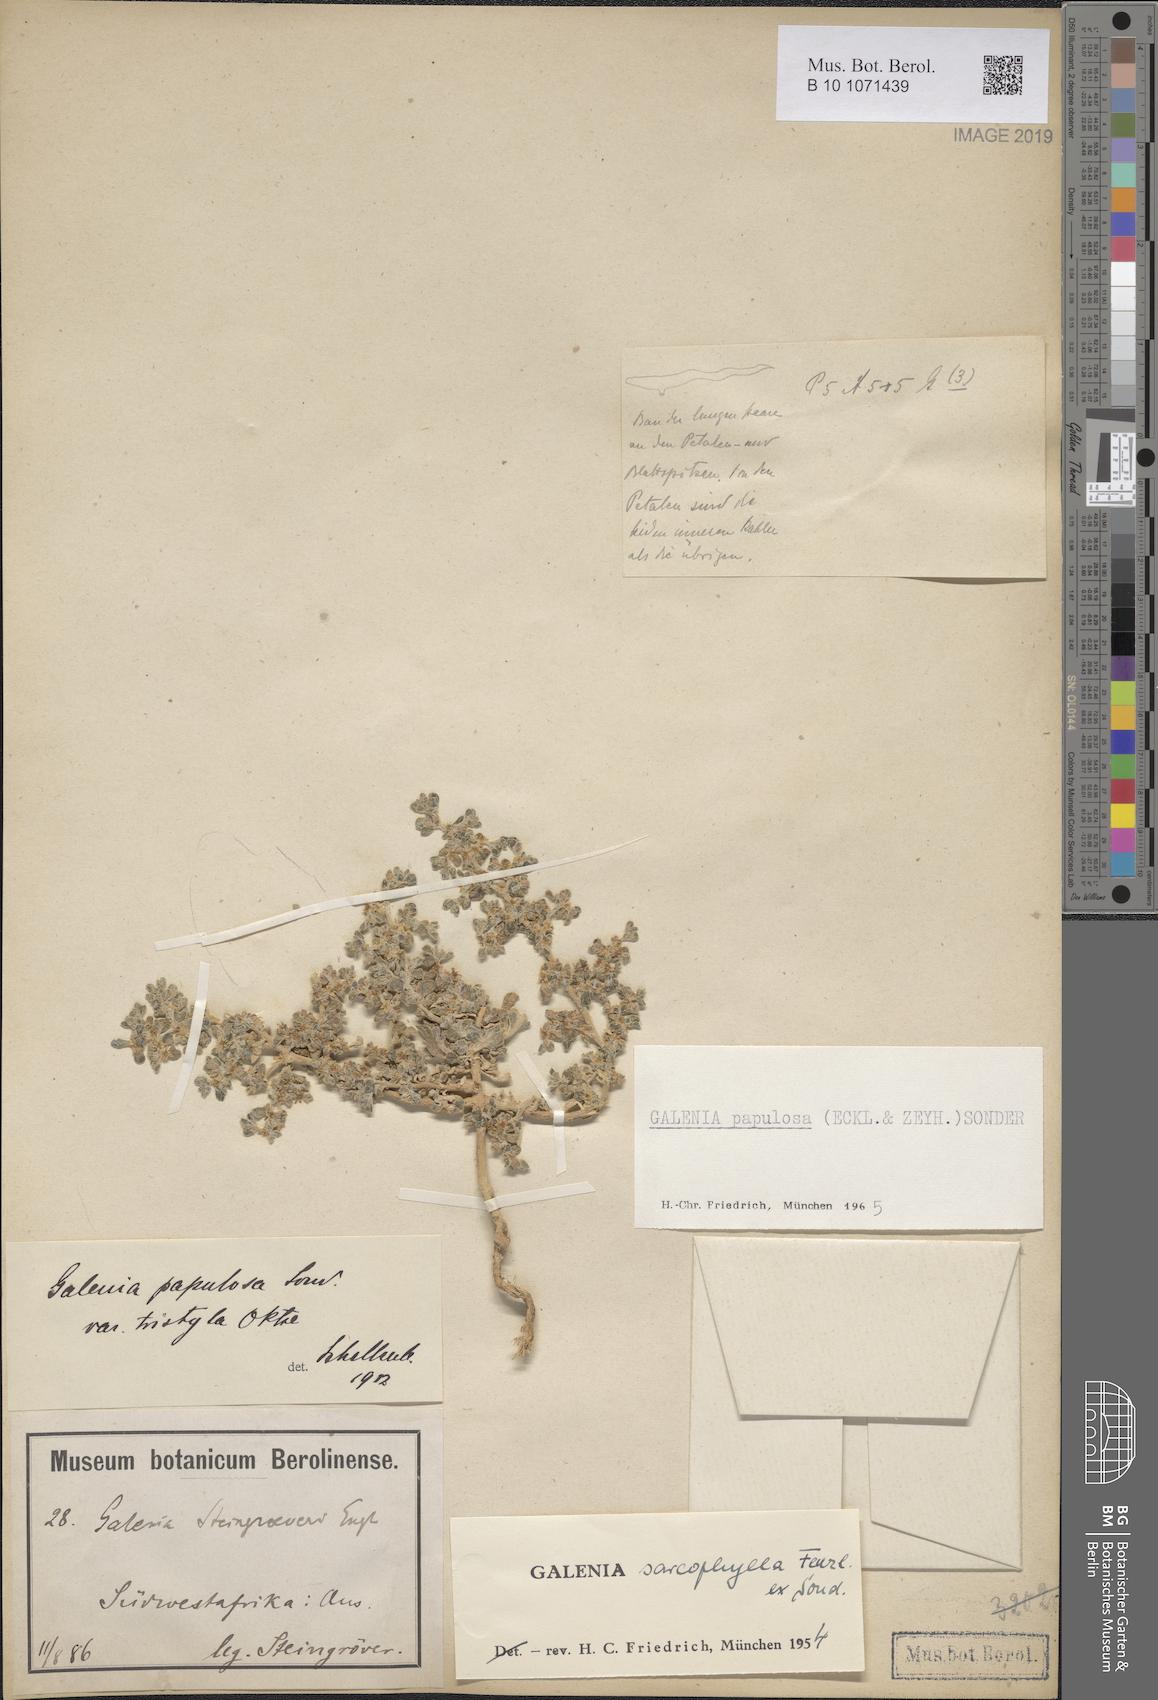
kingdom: Plantae
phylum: Tracheophyta
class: Magnoliopsida
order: Caryophyllales
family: Aizoaceae
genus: Aizoon
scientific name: Aizoon papulosum
